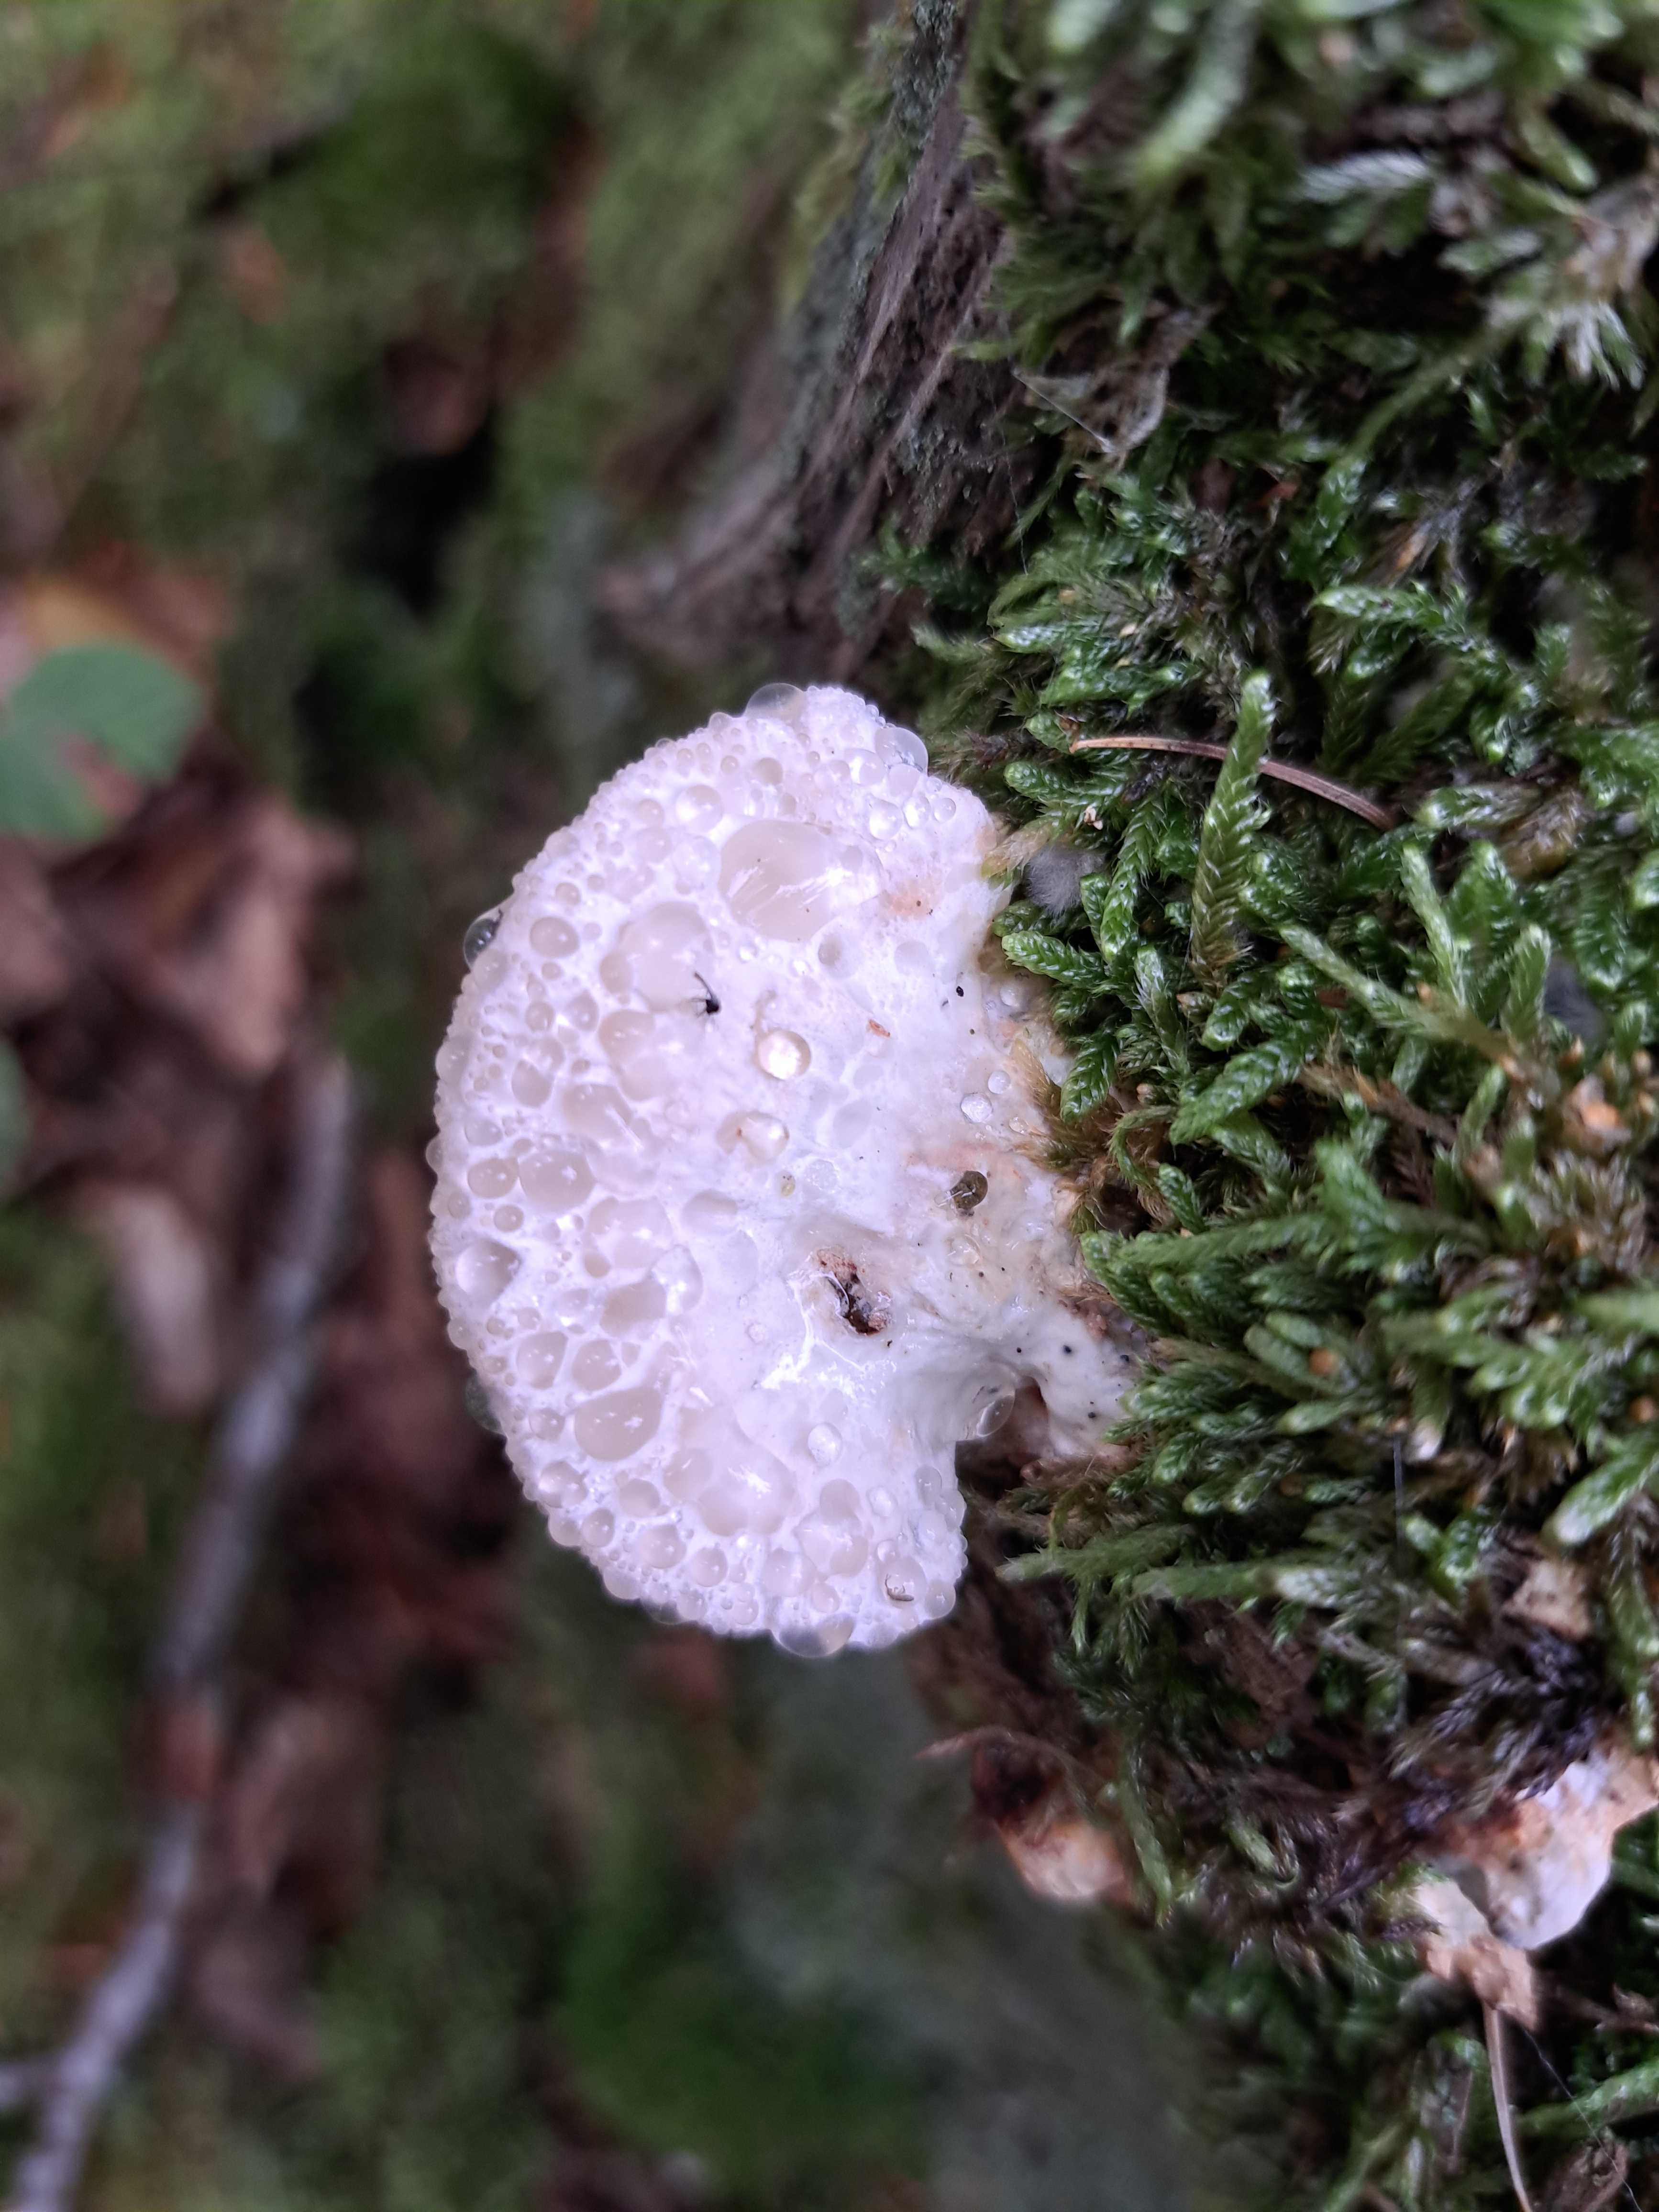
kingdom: Fungi
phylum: Basidiomycota
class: Agaricomycetes
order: Polyporales
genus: Calcipostia
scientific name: Calcipostia guttulata
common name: dråbe-kødporesvamp
